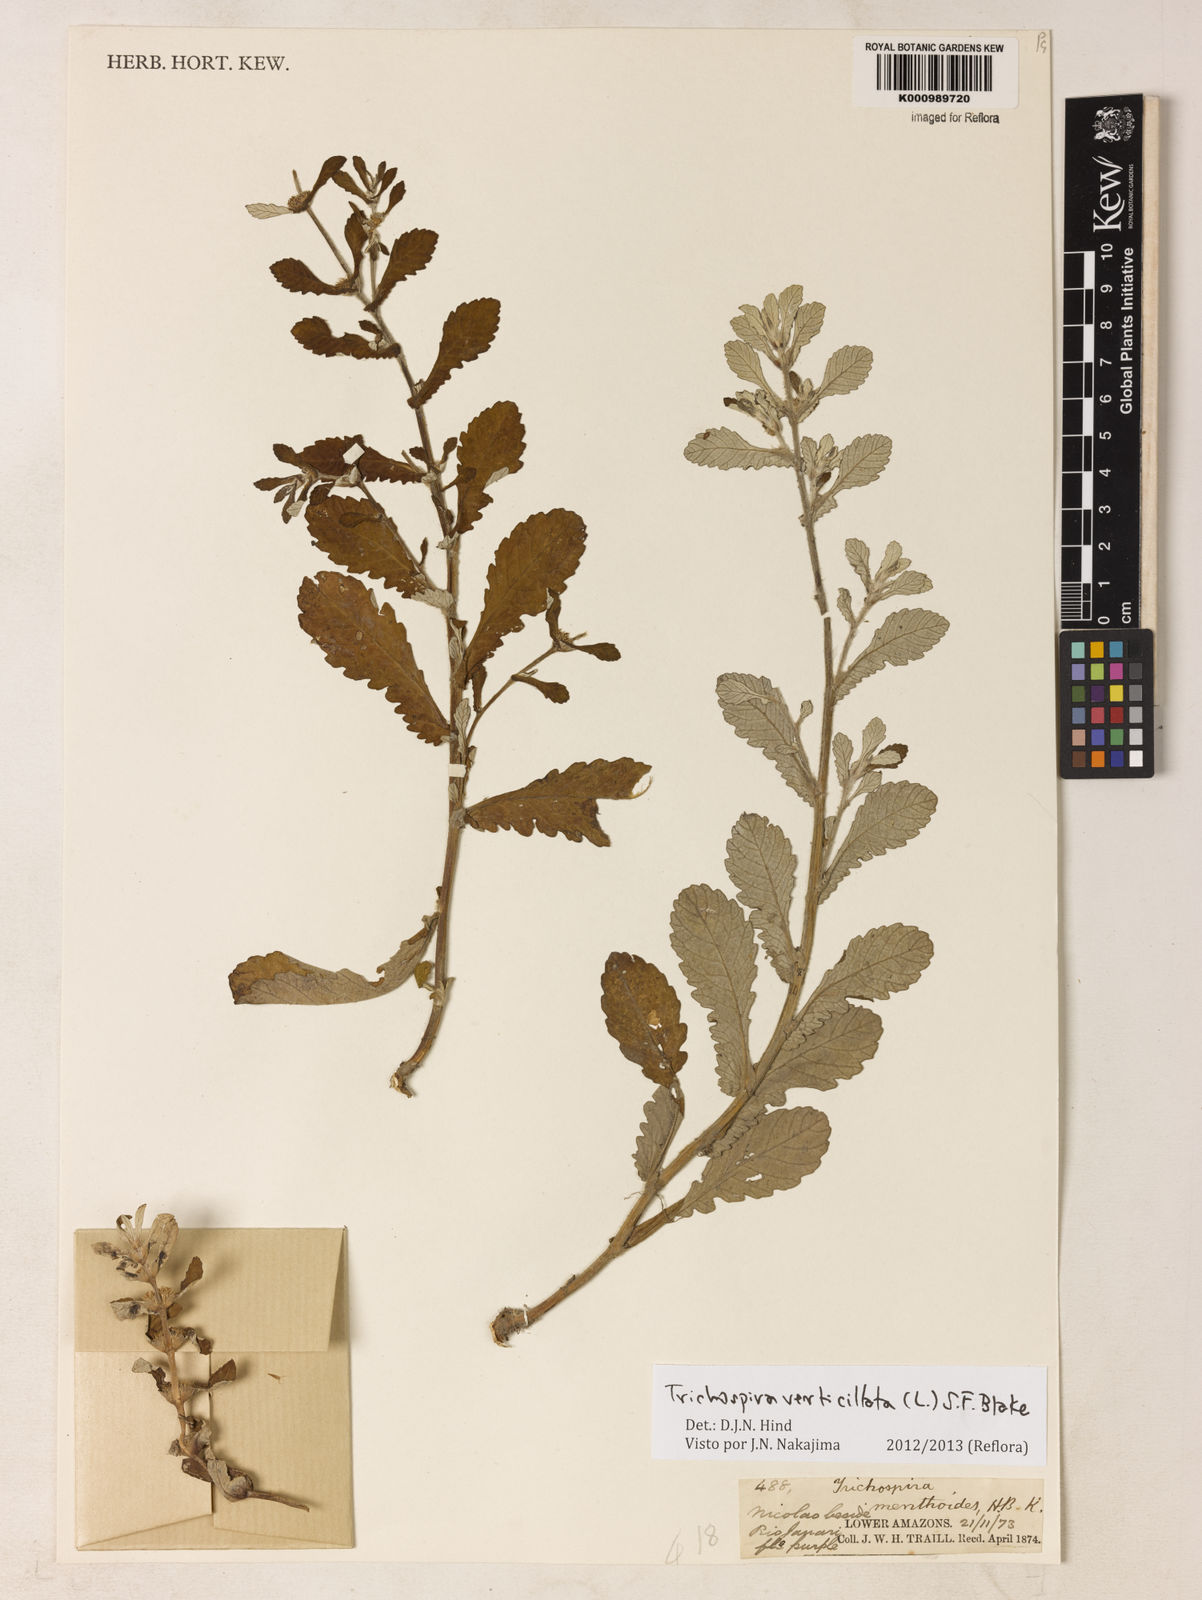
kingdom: Chromista
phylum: Ciliophora
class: Kinetofragminophora
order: Trichostomatida
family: Trichospiridae
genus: Trichospira
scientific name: Trichospira verticillata
